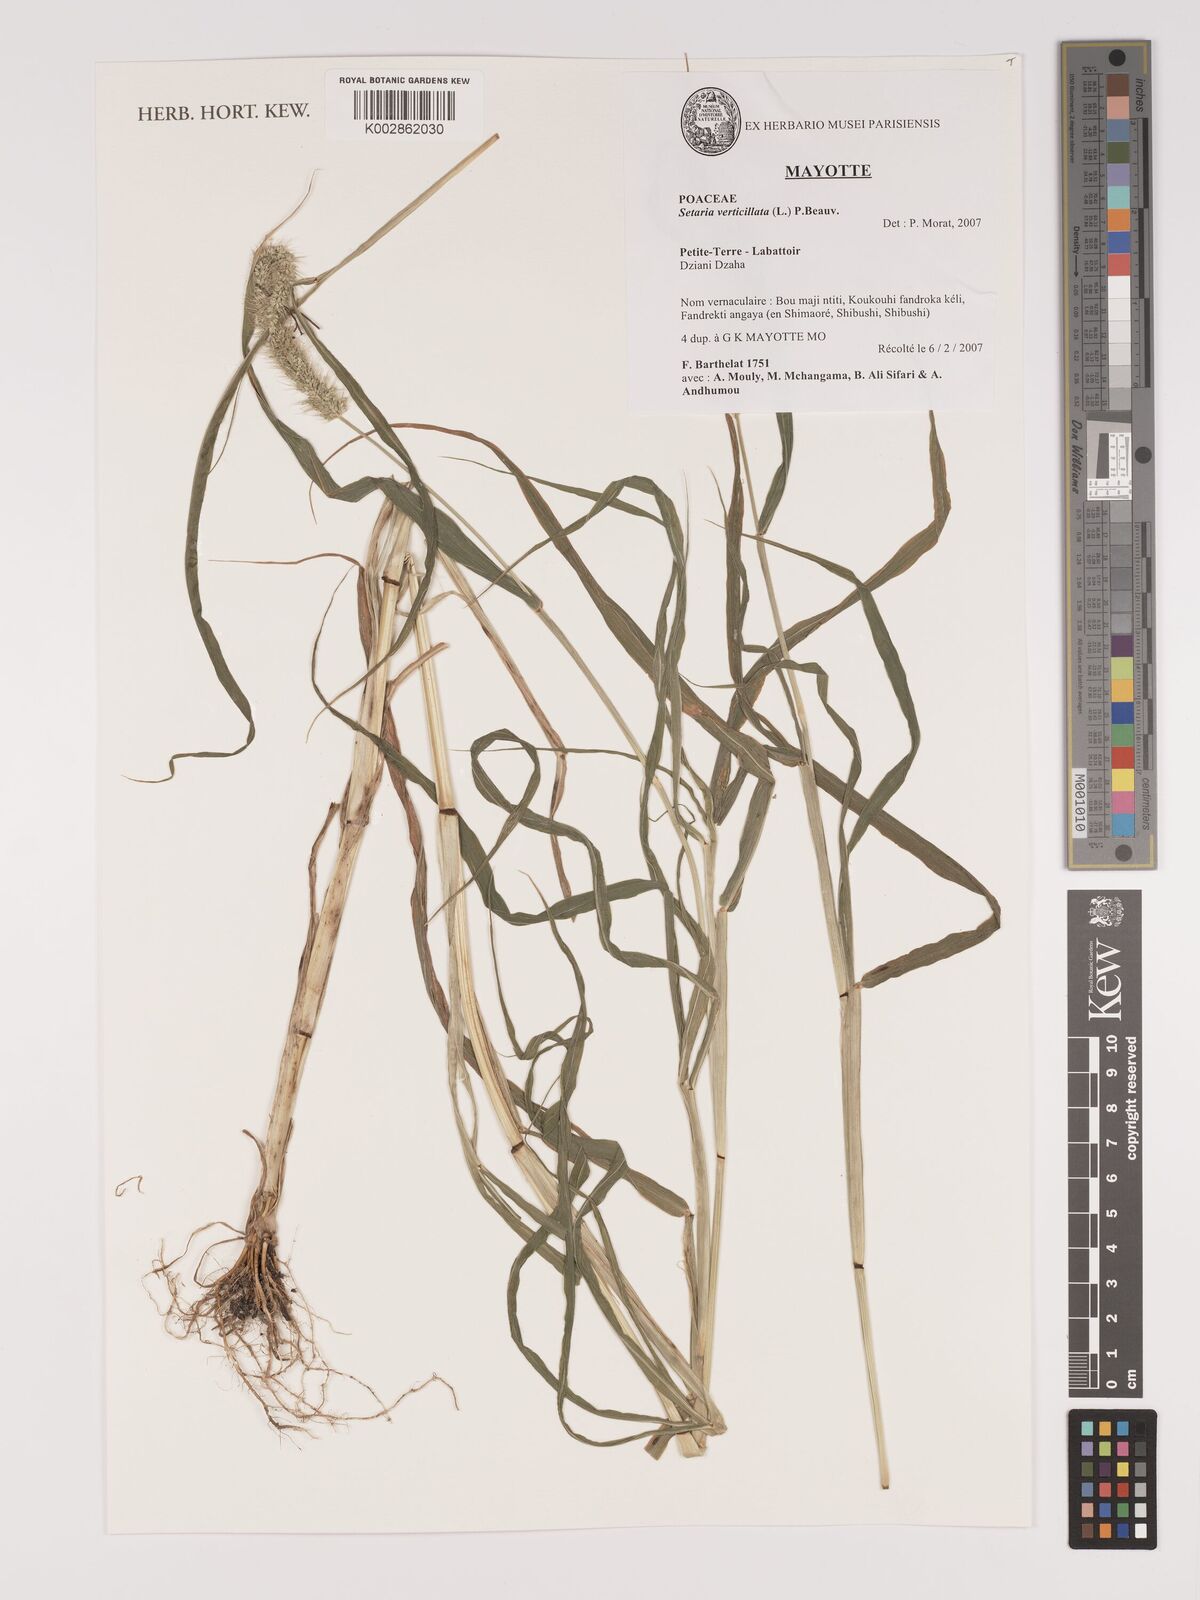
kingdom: Plantae
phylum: Tracheophyta
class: Liliopsida
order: Poales
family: Poaceae
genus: Setaria
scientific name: Setaria verticillata
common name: Hooked bristlegrass
